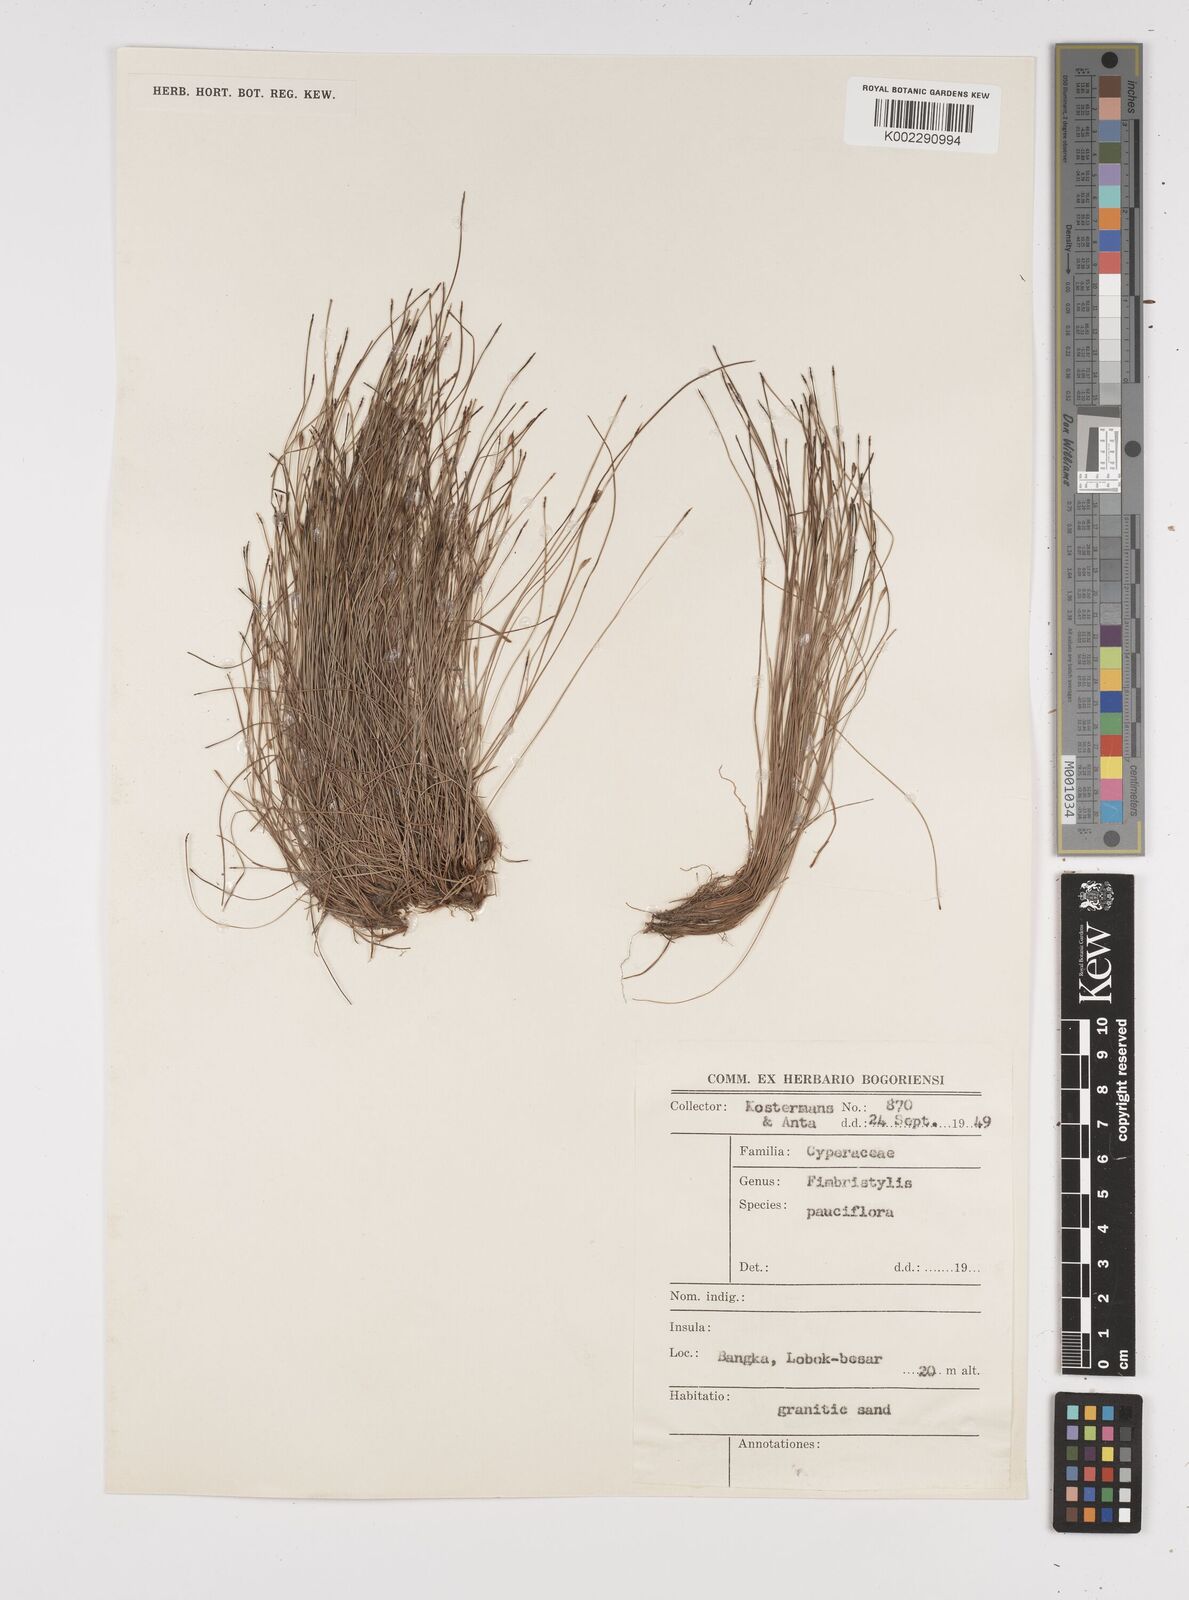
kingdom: Plantae
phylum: Tracheophyta
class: Liliopsida
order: Poales
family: Cyperaceae
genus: Fimbristylis
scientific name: Fimbristylis pauciflora
